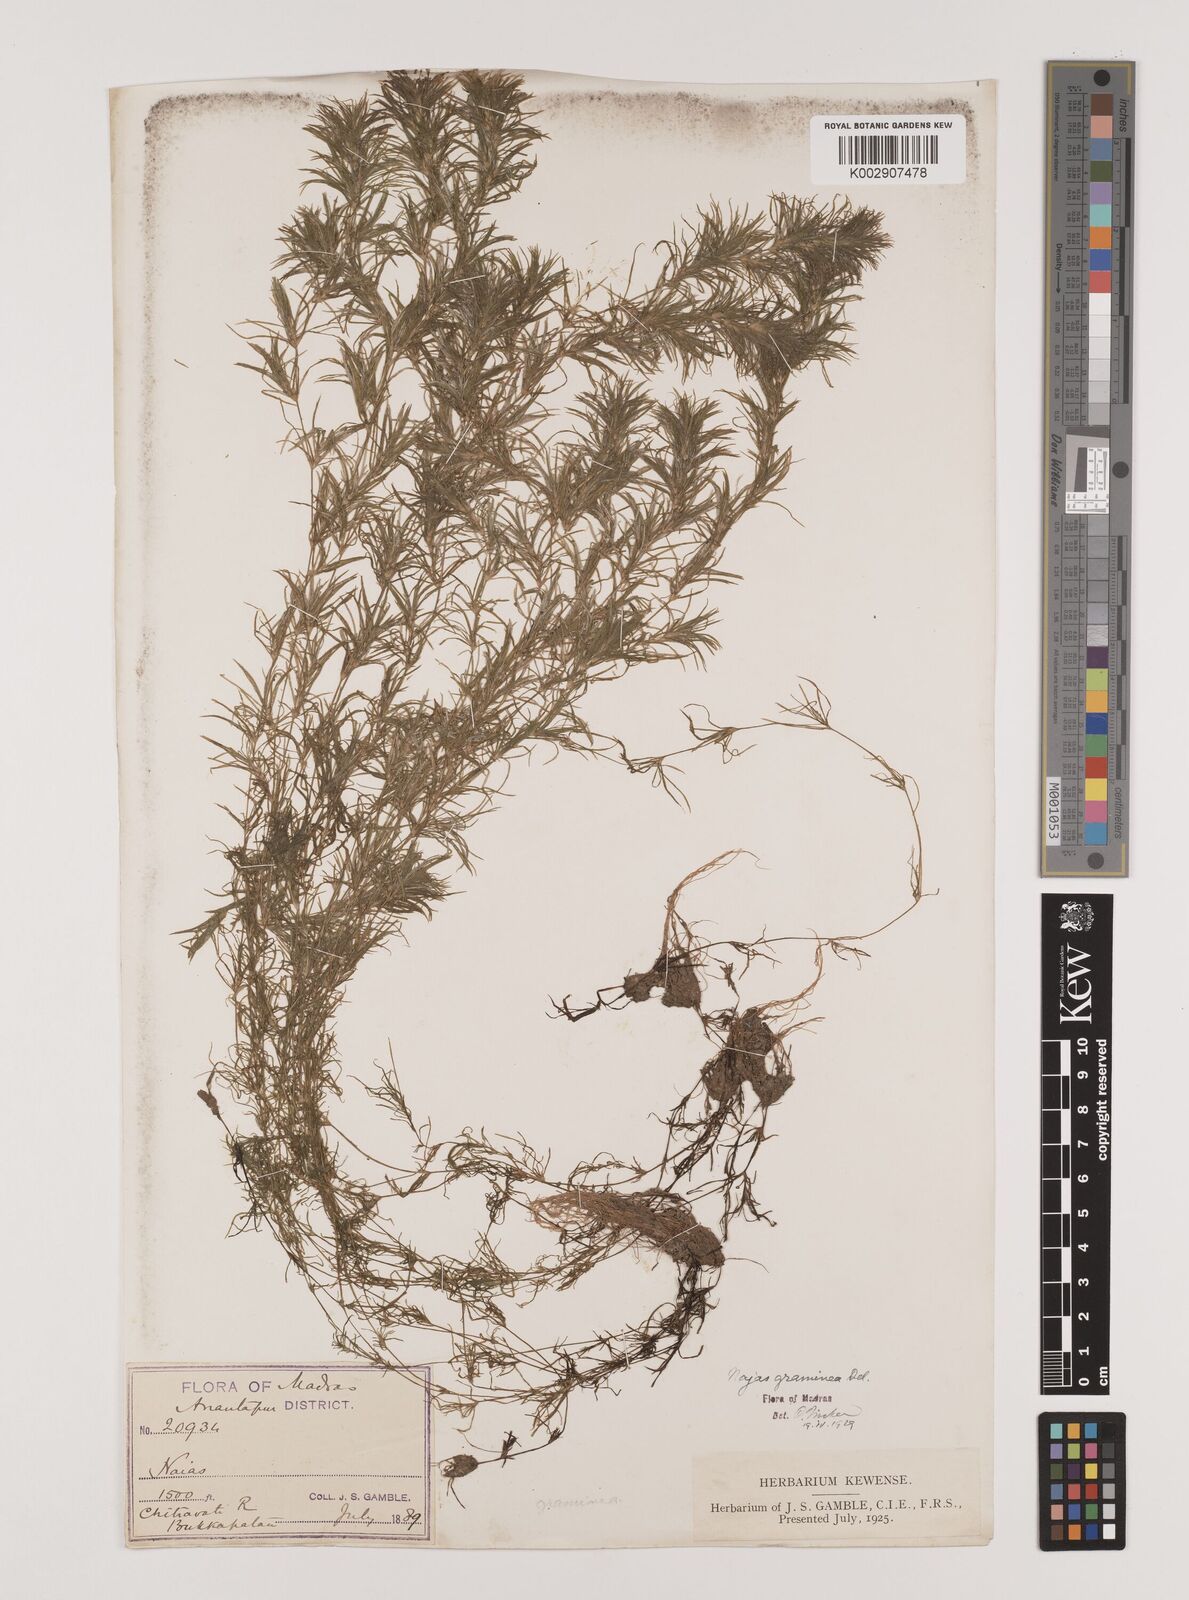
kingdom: Plantae
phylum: Tracheophyta
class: Liliopsida
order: Alismatales
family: Hydrocharitaceae
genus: Najas
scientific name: Najas graminea
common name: Ricefield waternymph
